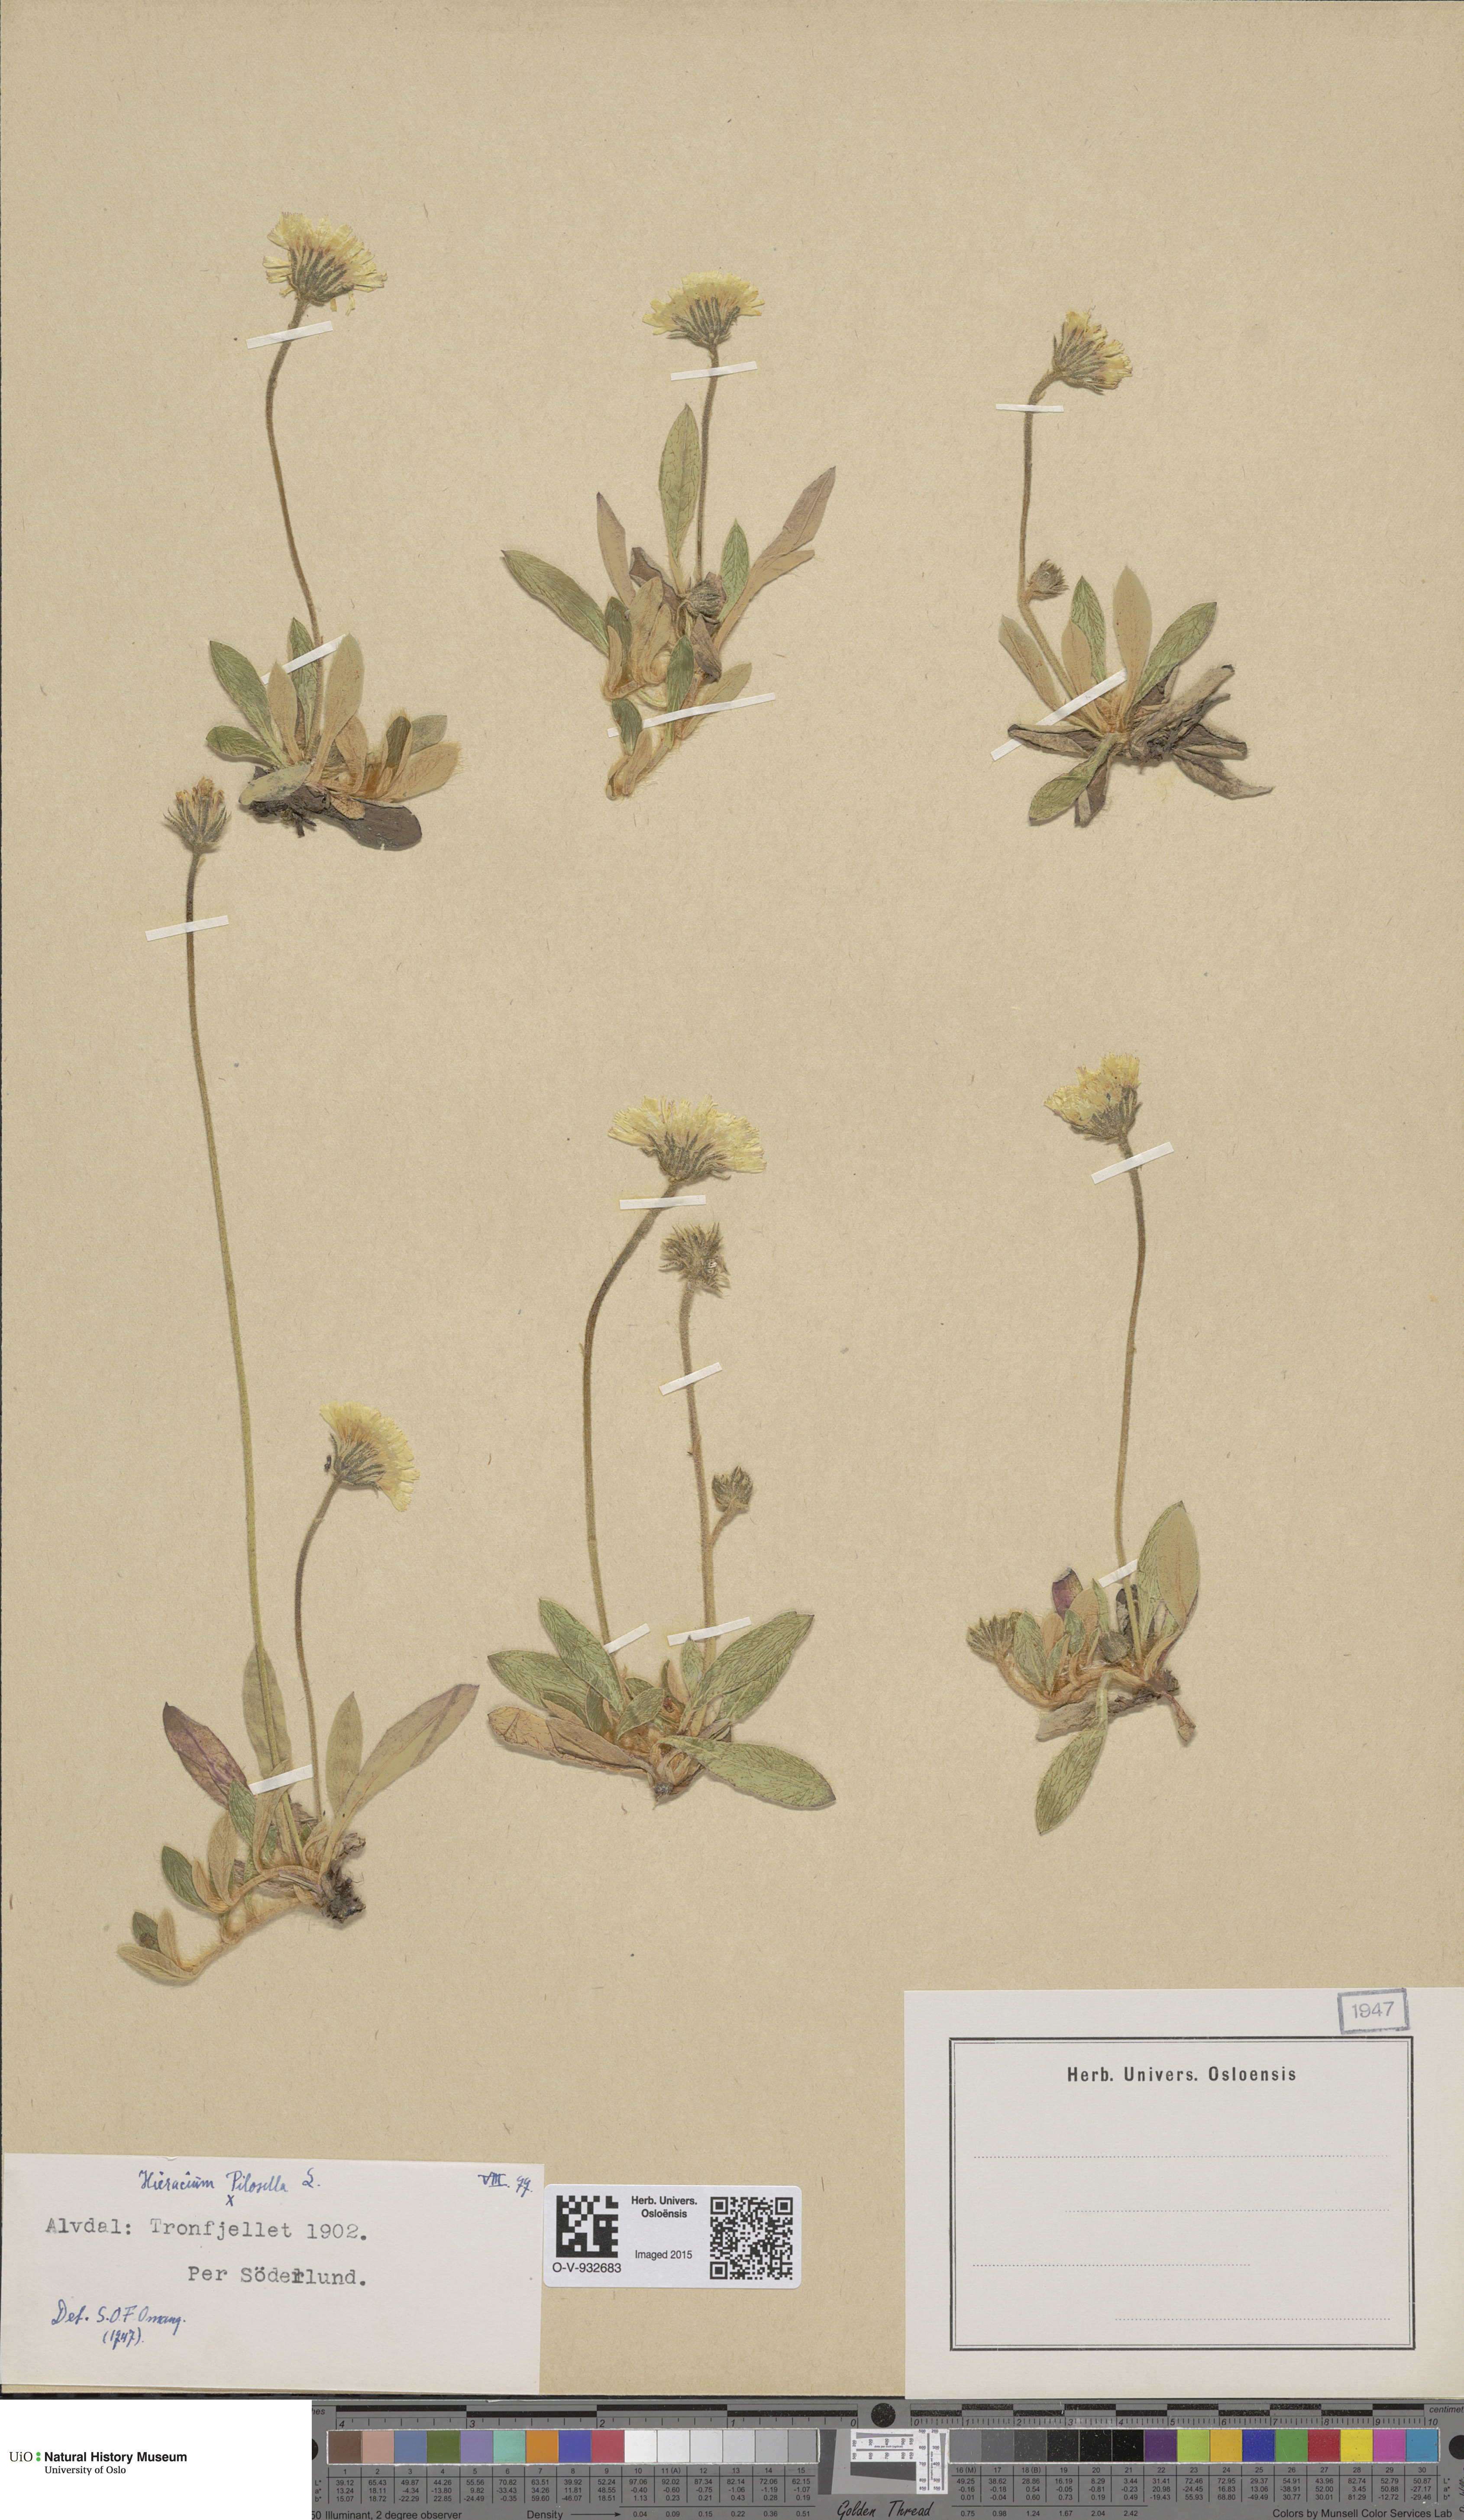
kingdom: Plantae
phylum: Tracheophyta
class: Magnoliopsida
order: Asterales
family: Asteraceae
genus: Pilosella
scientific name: Pilosella officinarum
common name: Mouse-ear hawkweed
